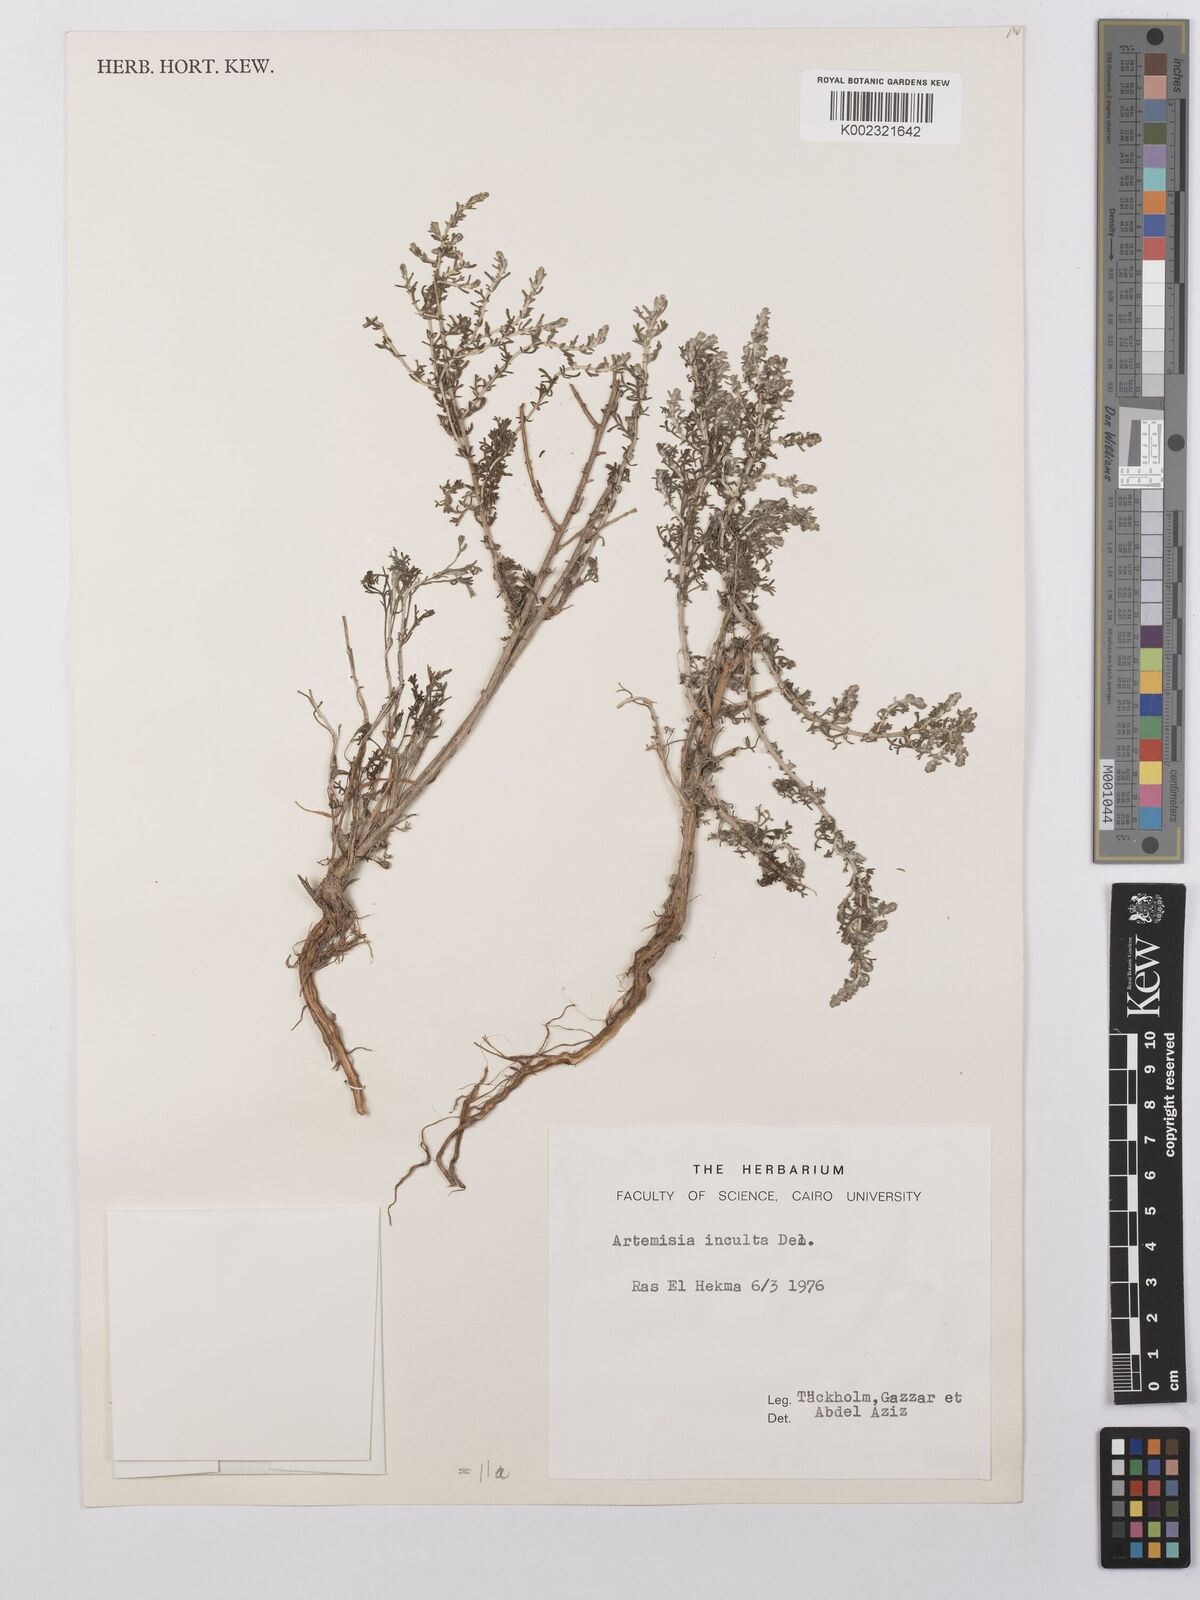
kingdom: Plantae
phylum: Tracheophyta
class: Magnoliopsida
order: Asterales
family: Asteraceae
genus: Artemisia
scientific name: Artemisia sieberi
